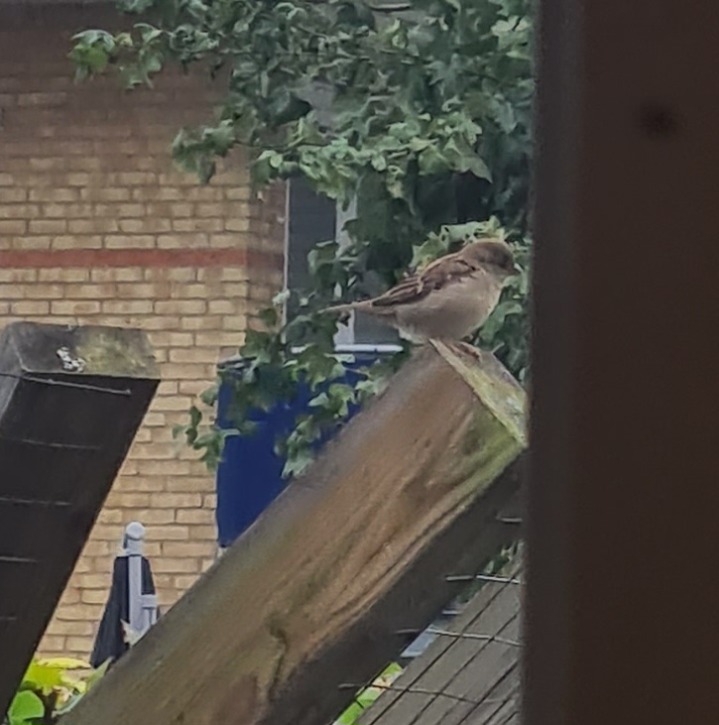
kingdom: Animalia
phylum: Chordata
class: Aves
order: Passeriformes
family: Passeridae
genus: Passer
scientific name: Passer domesticus
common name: Gråspurv
